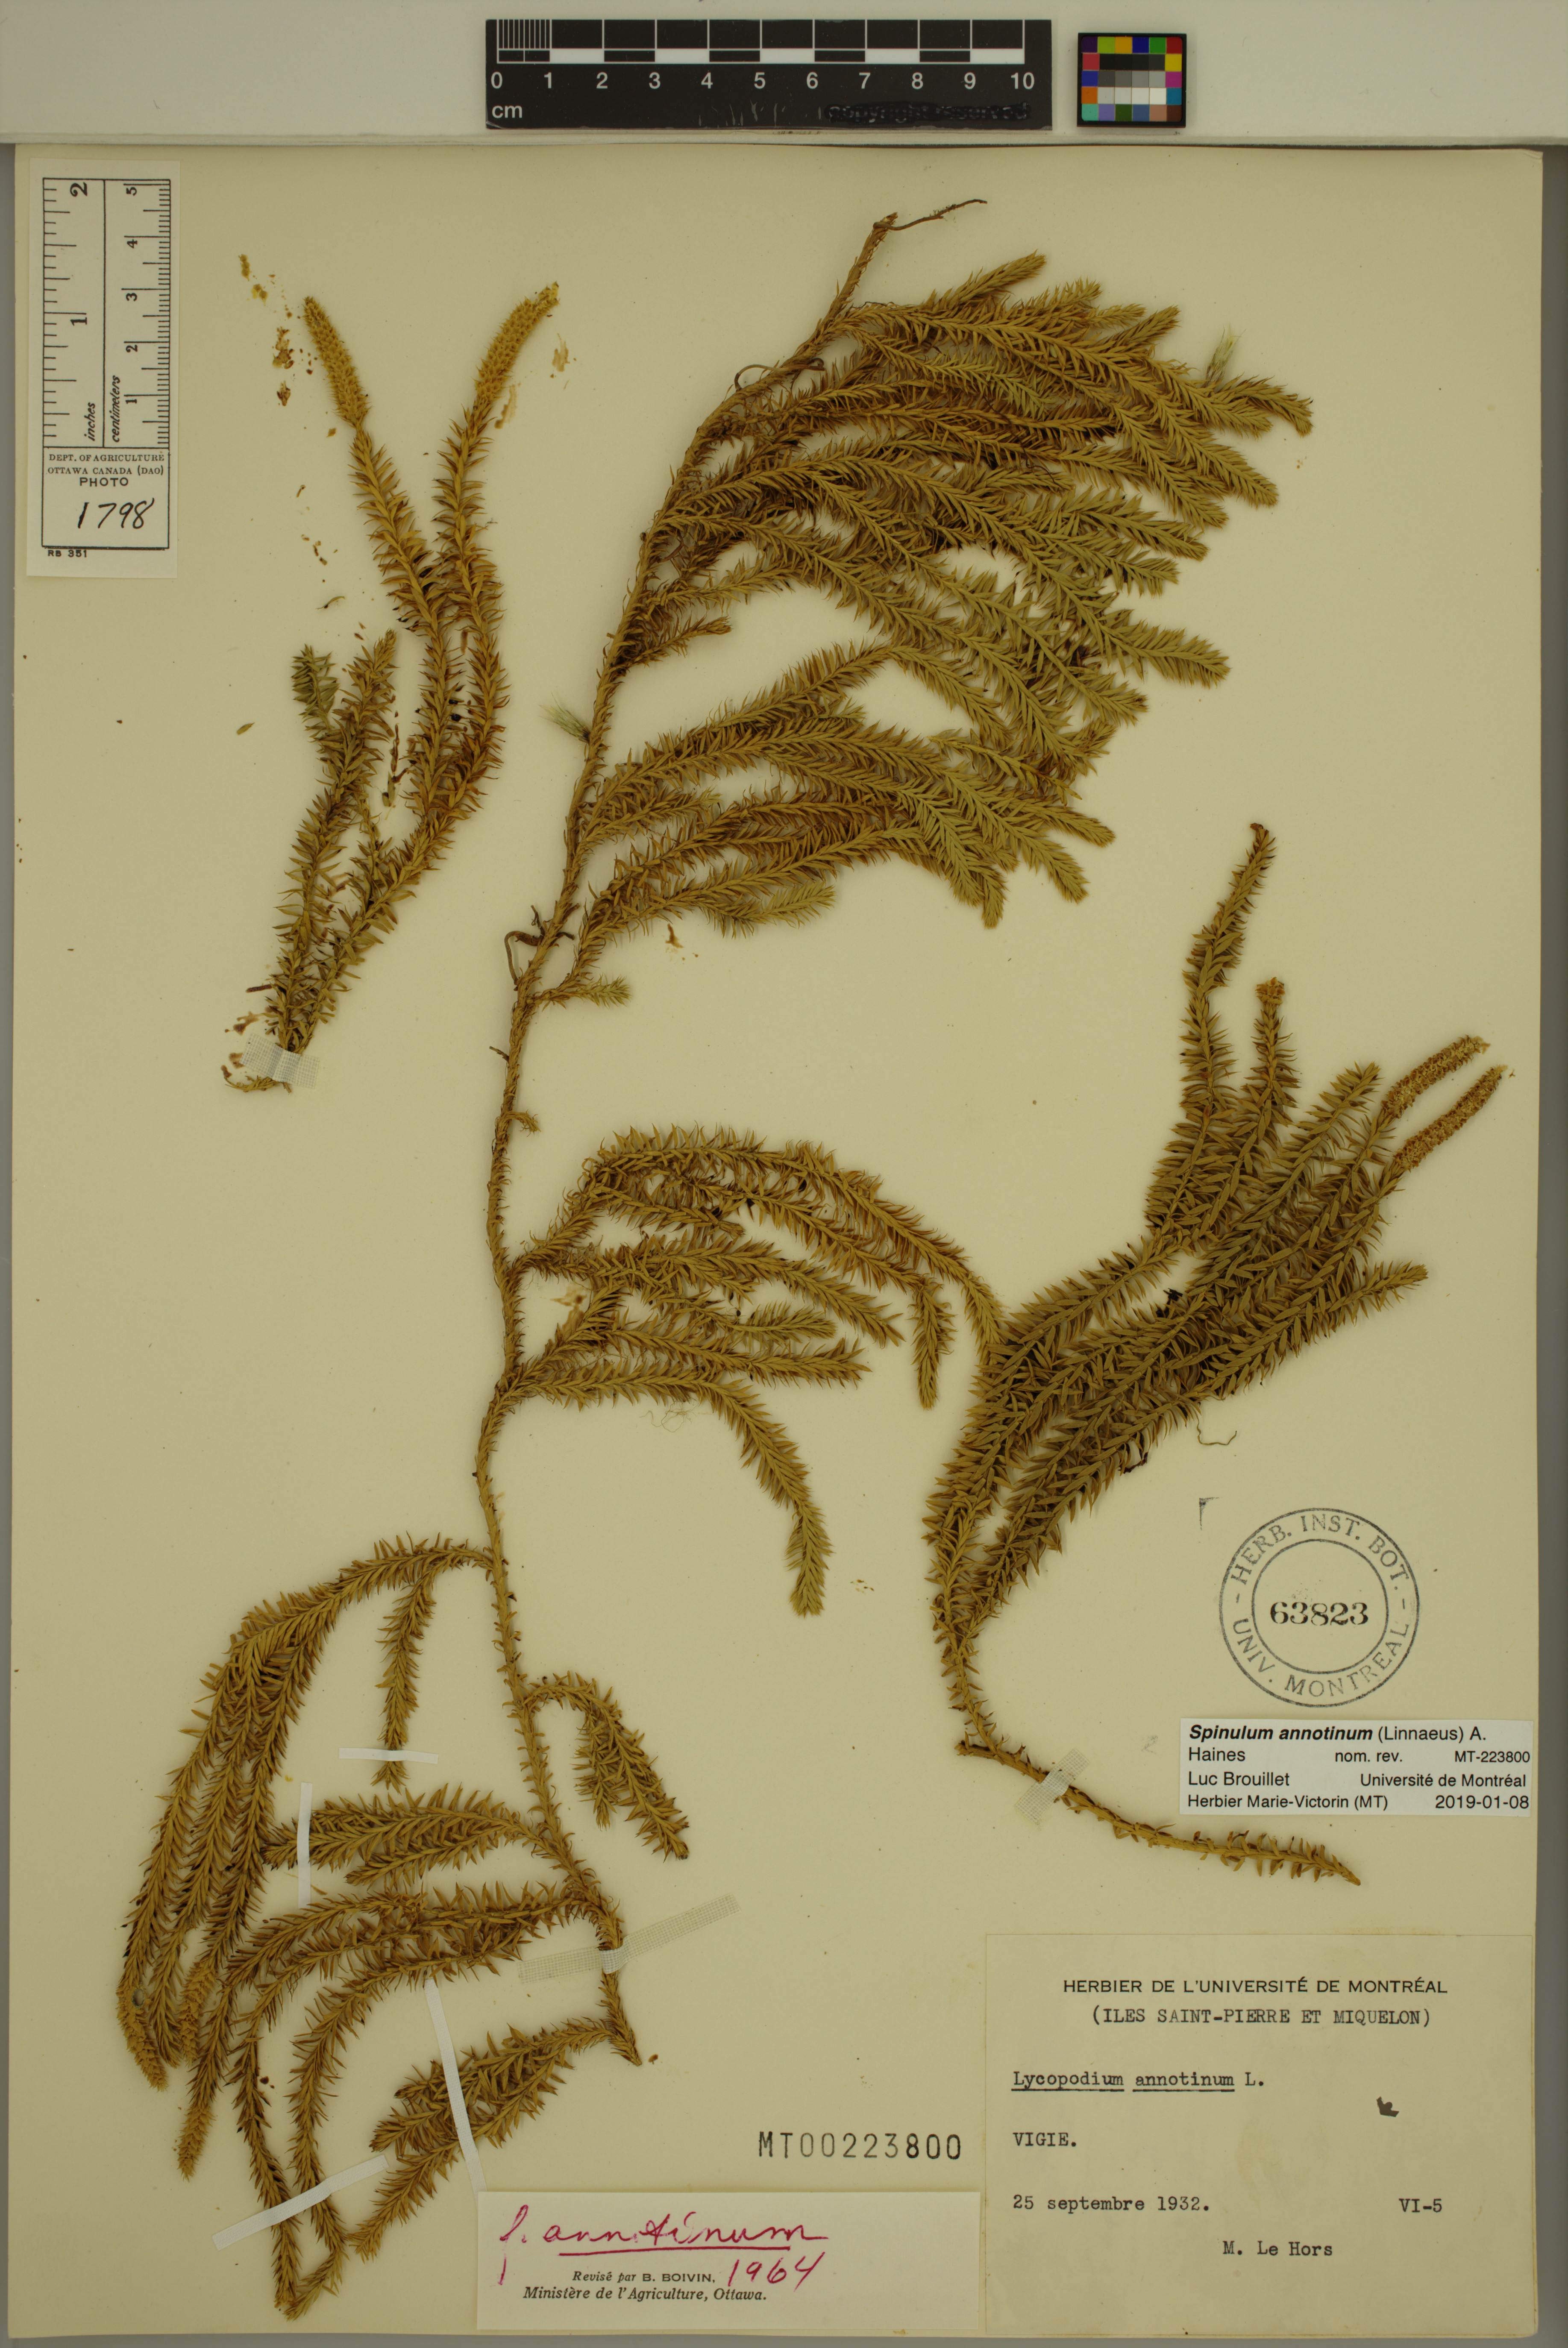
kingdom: Plantae
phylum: Tracheophyta
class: Lycopodiopsida
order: Lycopodiales
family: Lycopodiaceae
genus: Spinulum
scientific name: Spinulum annotinum
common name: Interrupted club-moss
